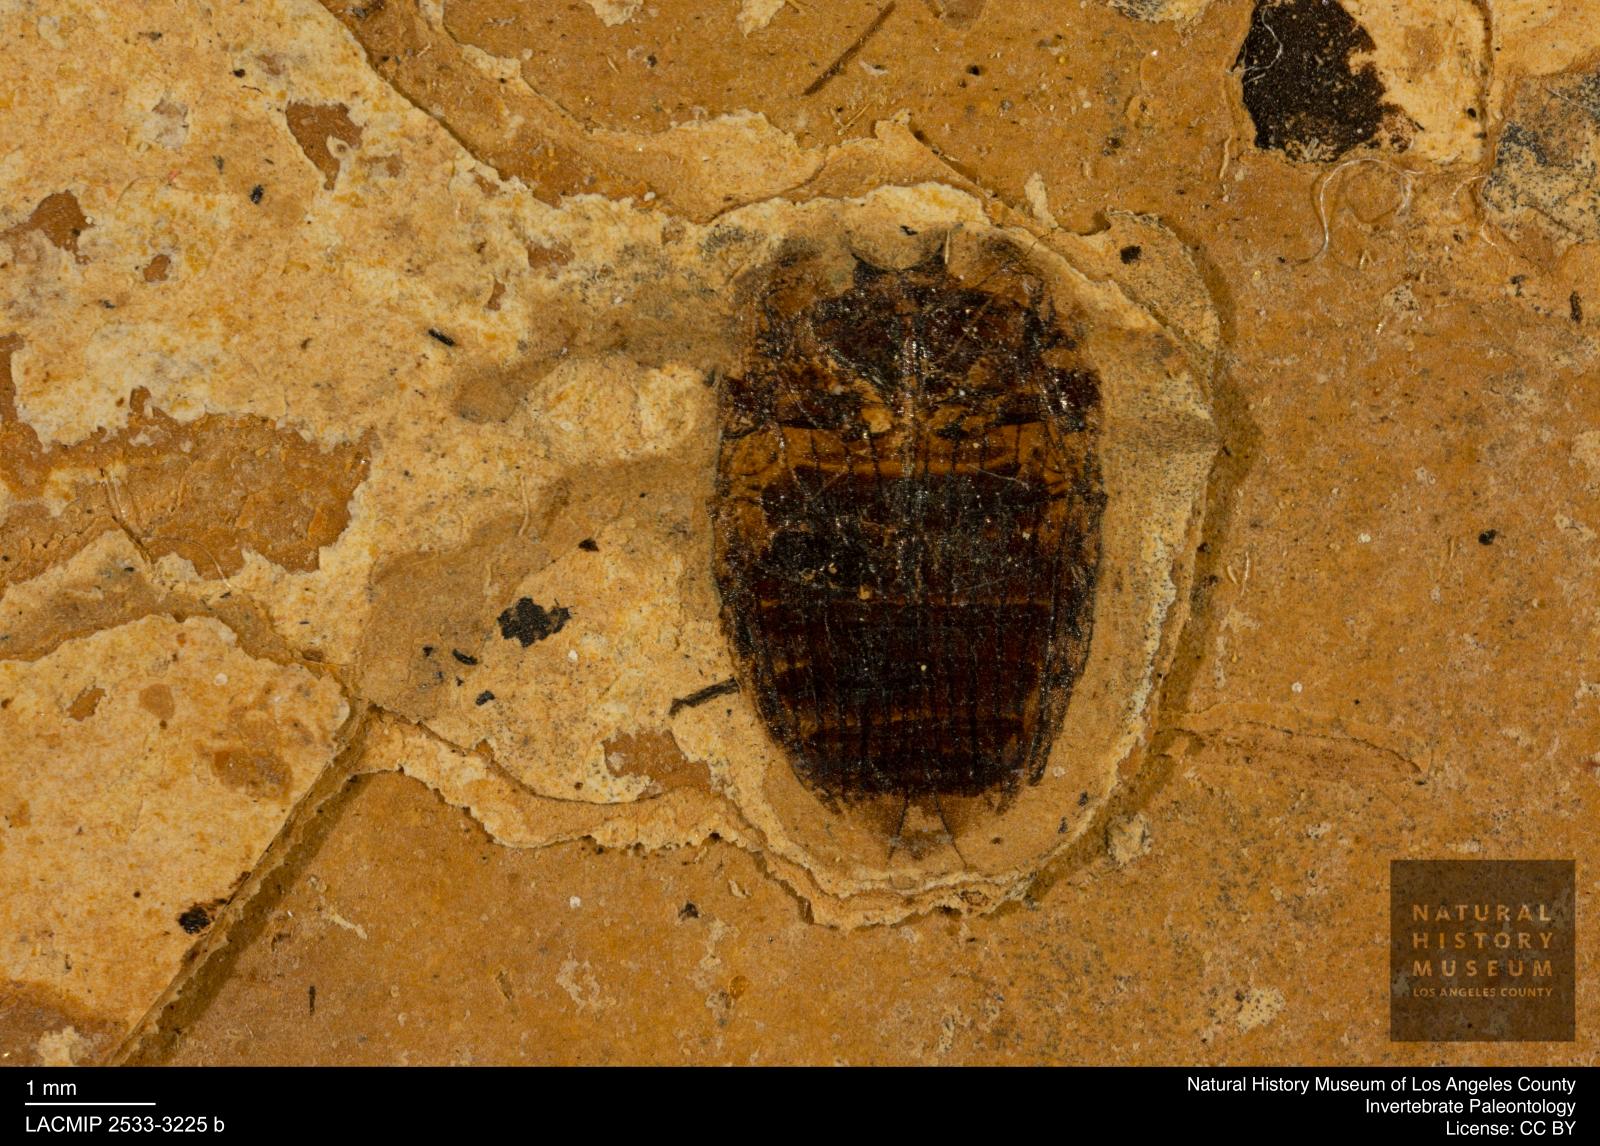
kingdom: Animalia
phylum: Arthropoda
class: Insecta
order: Coleoptera
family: Hydrophilidae
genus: Berosus
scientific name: Berosus
